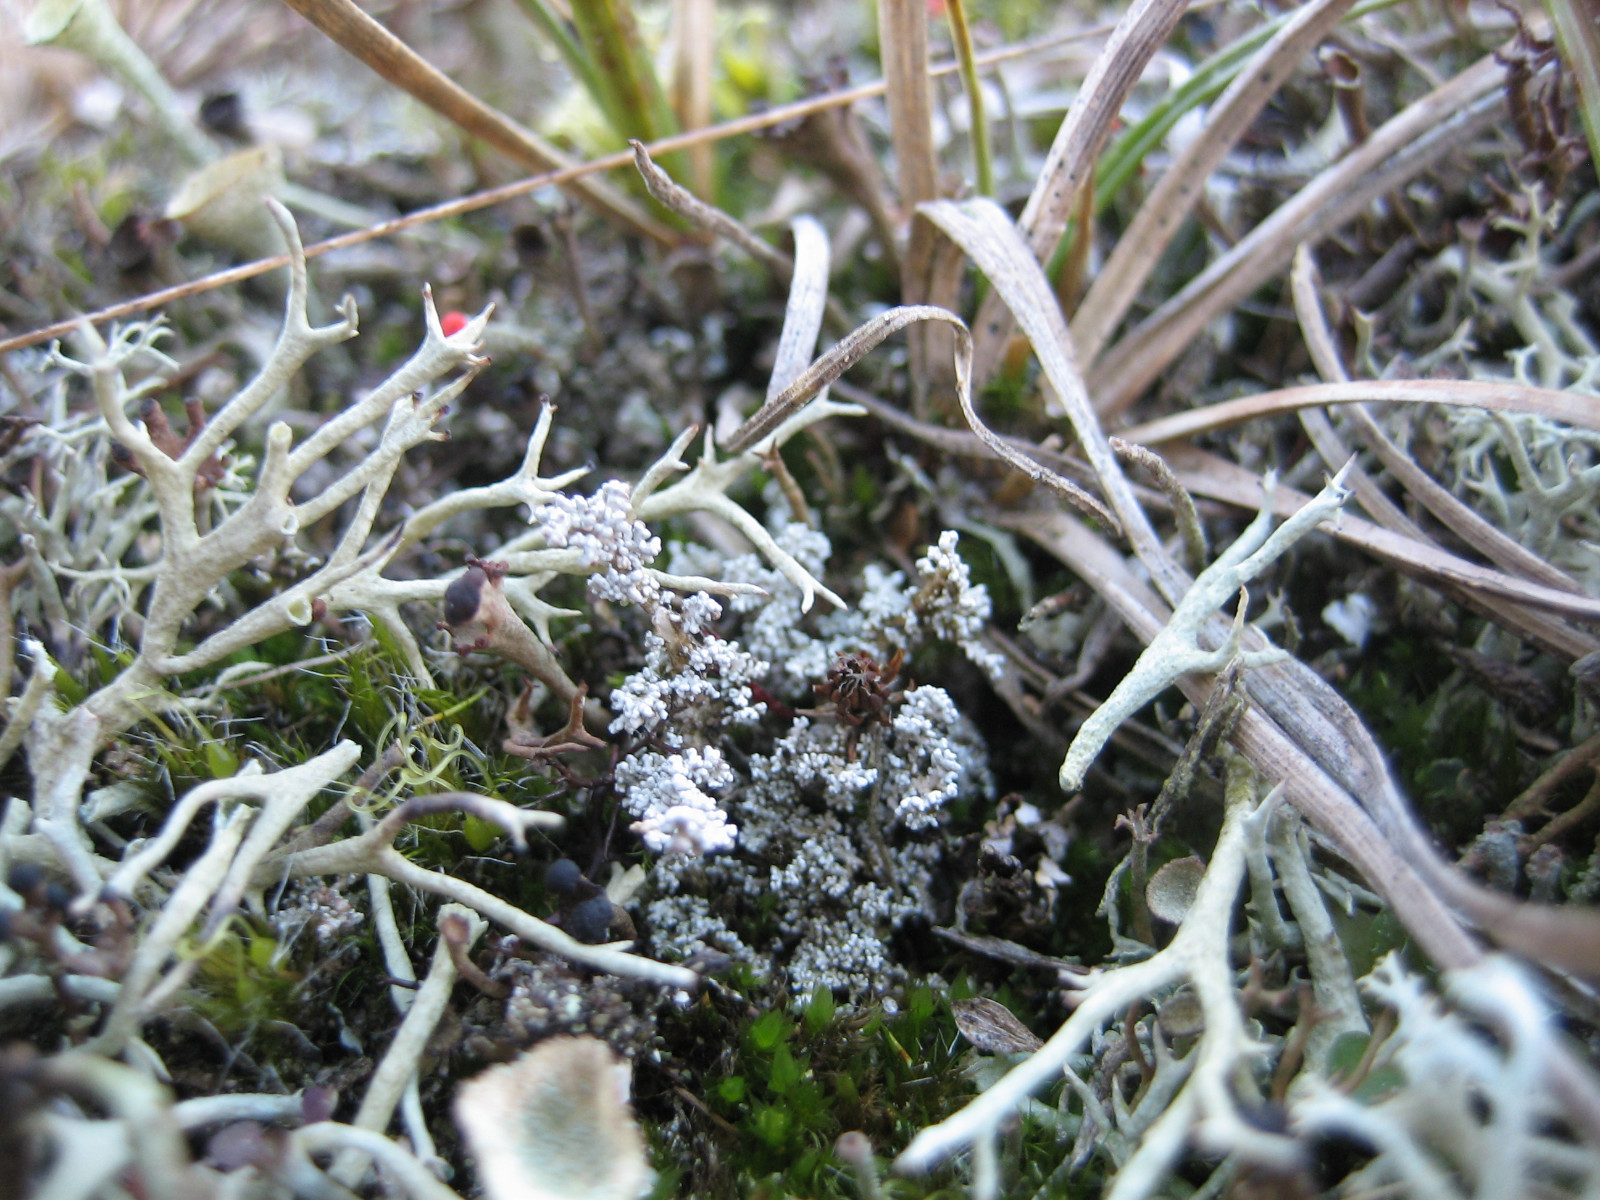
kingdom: Fungi
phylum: Ascomycota
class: Lecanoromycetes
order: Lecanorales
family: Stereocaulaceae
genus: Stereocaulon
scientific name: Stereocaulon saxatile
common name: klit-korallav
